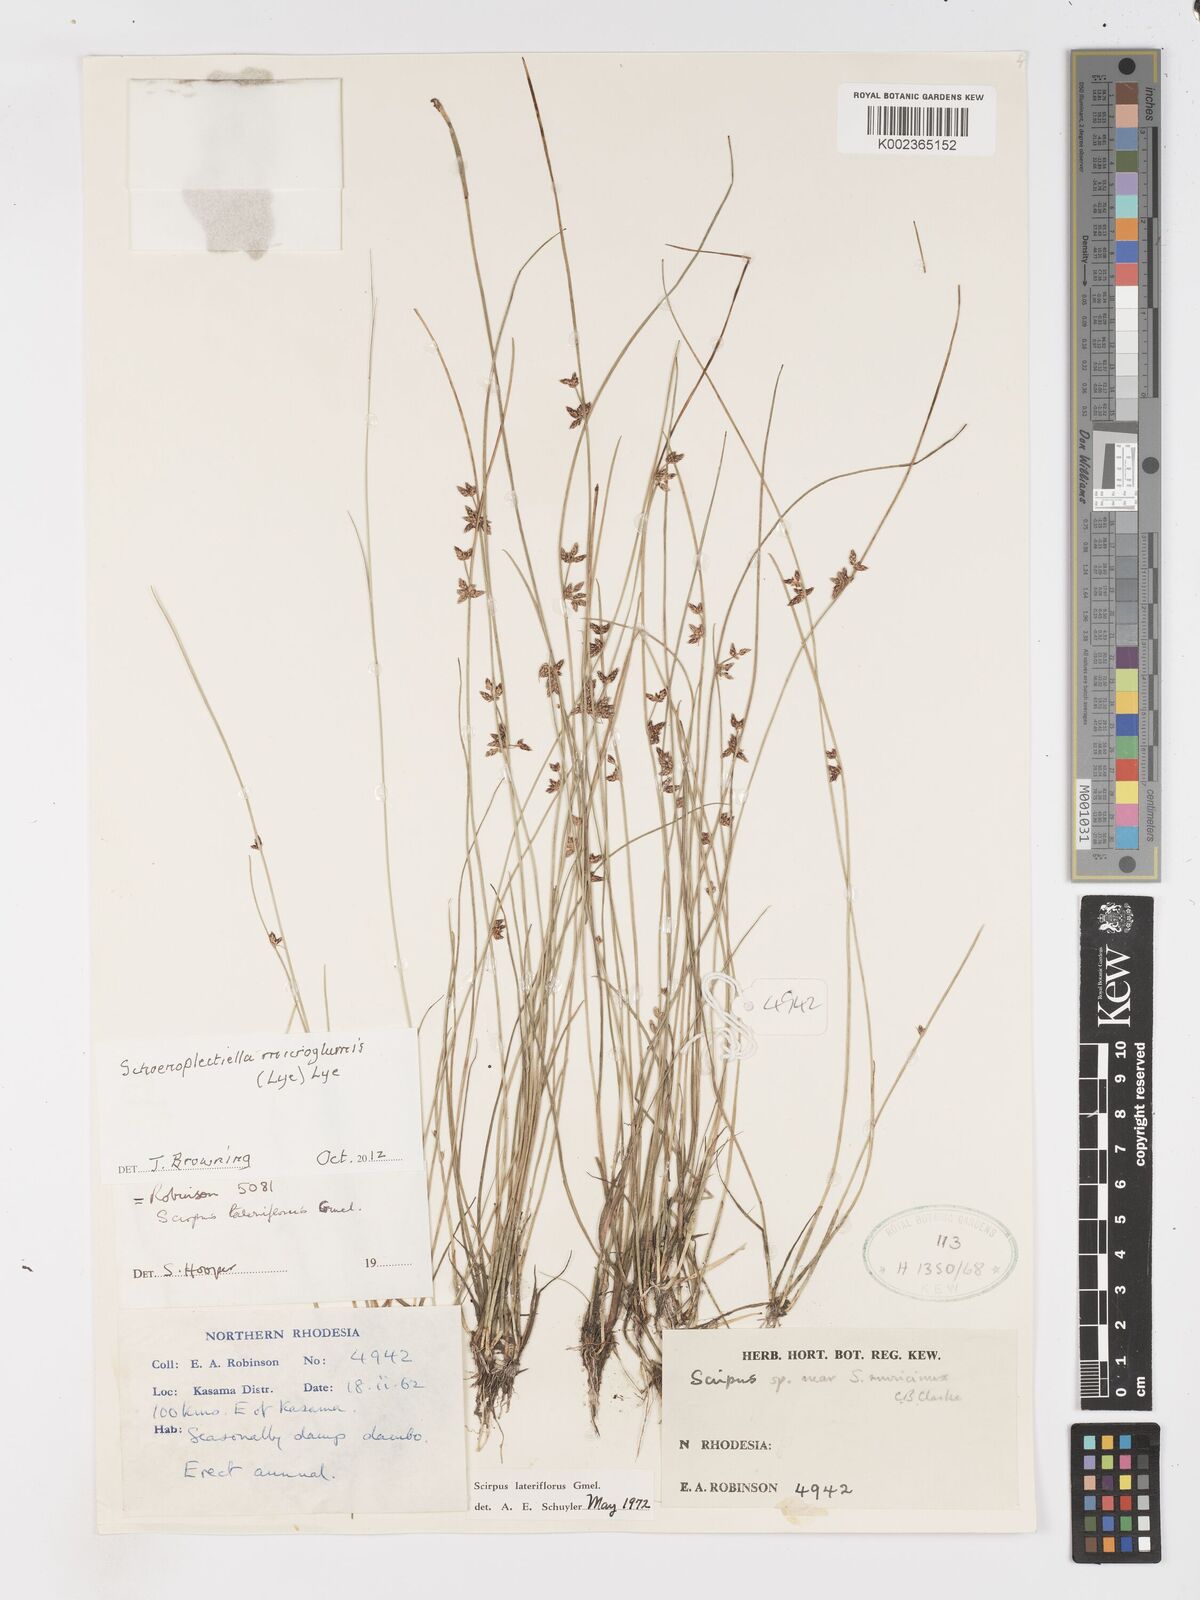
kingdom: Plantae
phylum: Tracheophyta
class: Liliopsida
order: Poales
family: Cyperaceae
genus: Schoenoplectiella
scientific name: Schoenoplectiella microglumis
